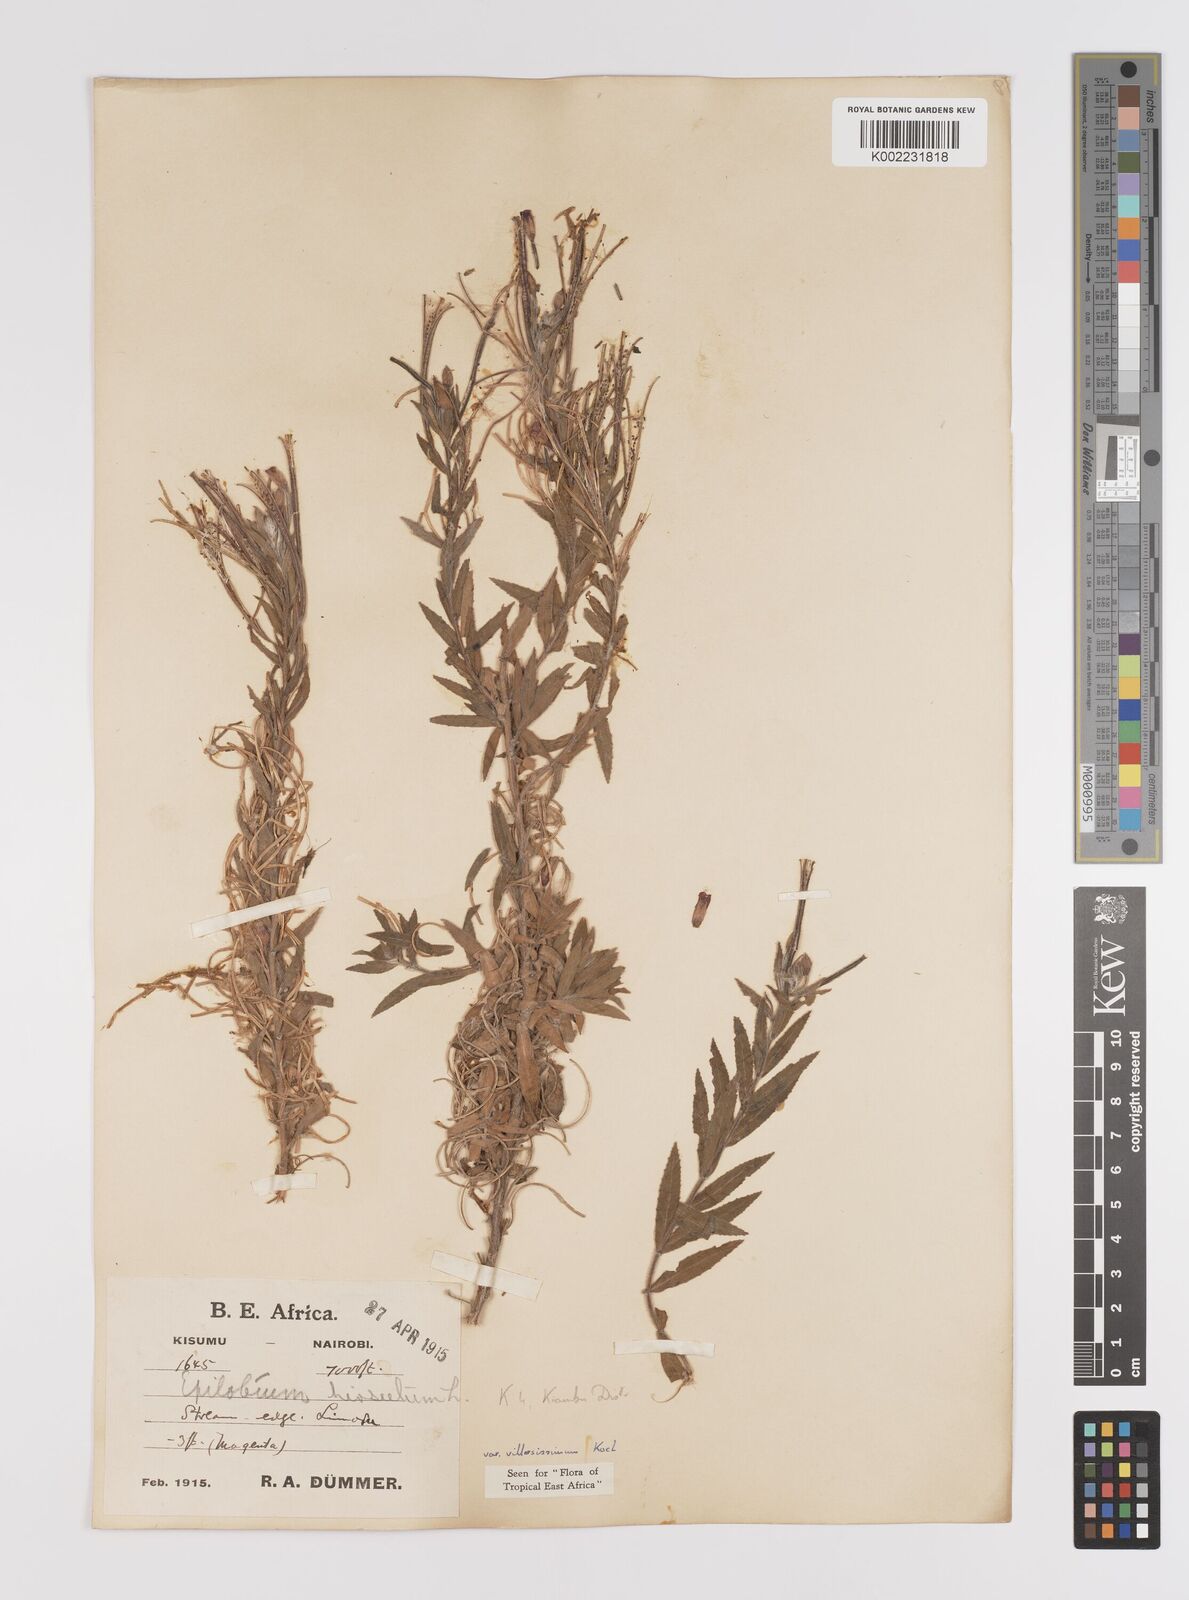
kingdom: Plantae
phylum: Tracheophyta
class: Magnoliopsida
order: Myrtales
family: Onagraceae
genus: Epilobium
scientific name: Epilobium hirsutum
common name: Great willowherb
